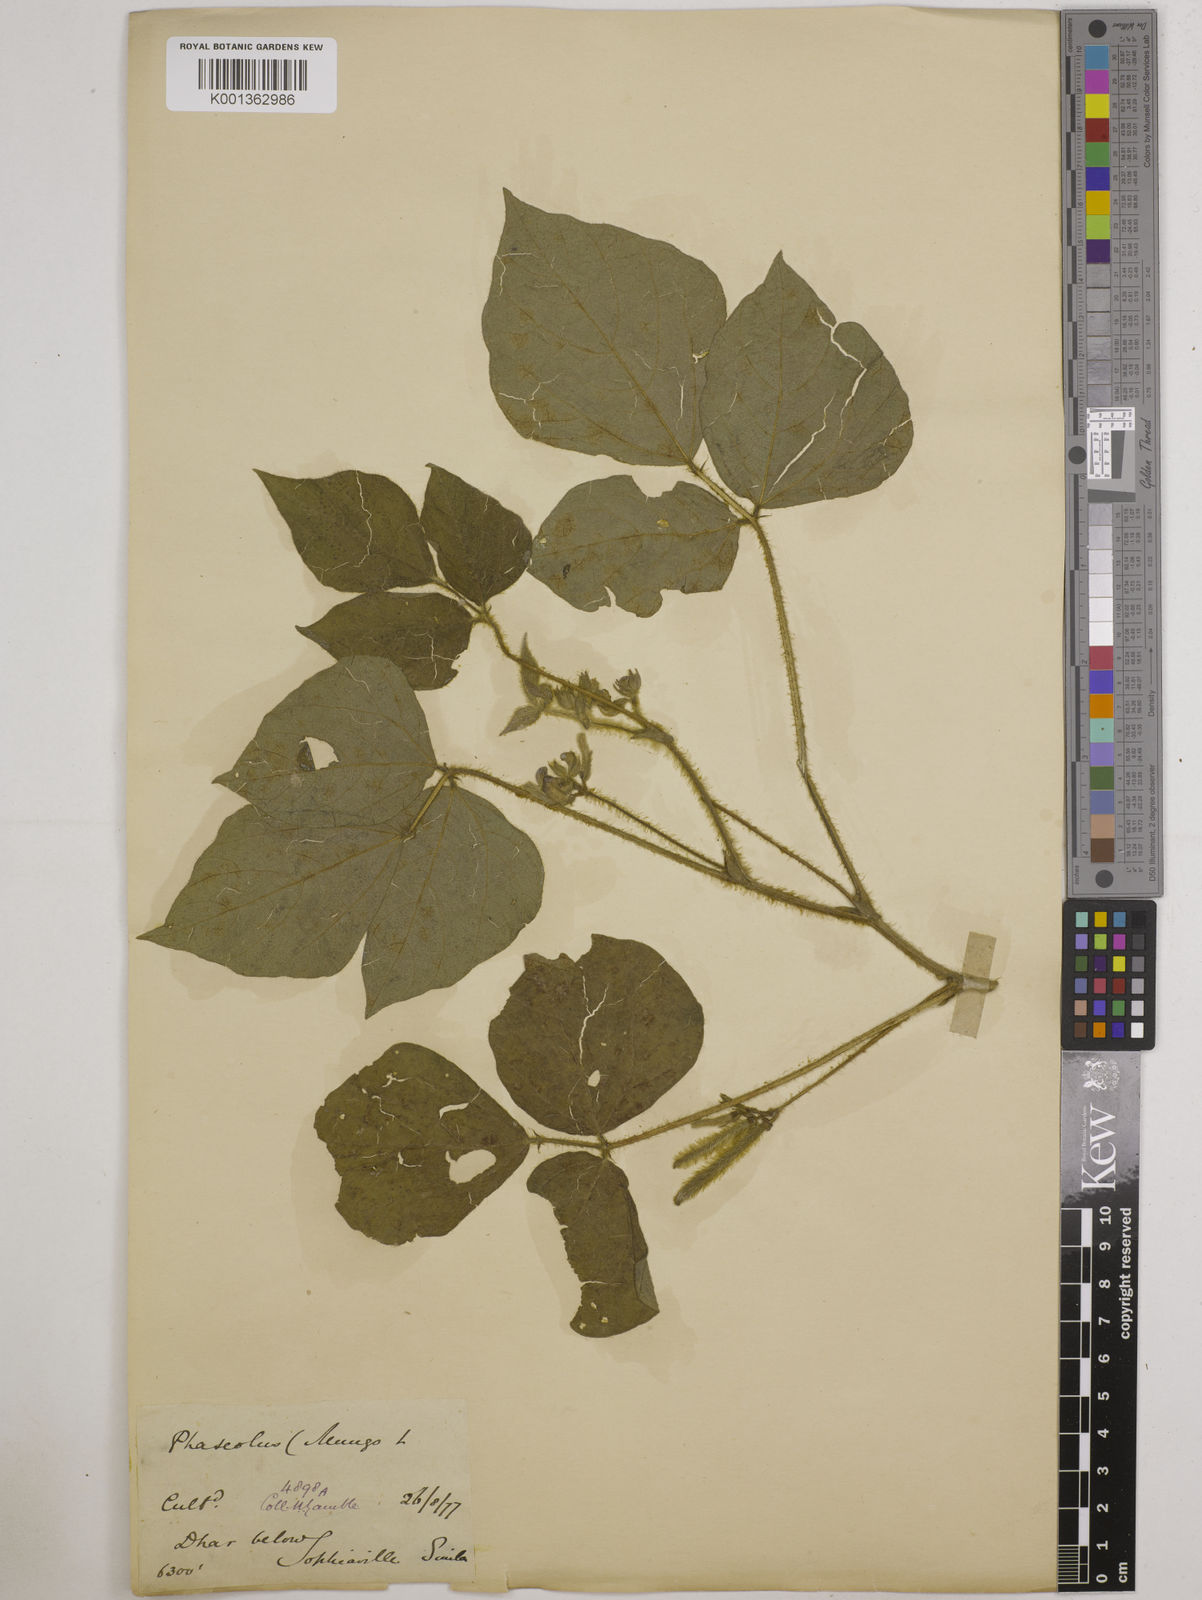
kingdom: Plantae
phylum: Tracheophyta
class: Magnoliopsida
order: Fabales
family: Fabaceae
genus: Vigna
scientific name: Vigna mungo
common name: Black gram
